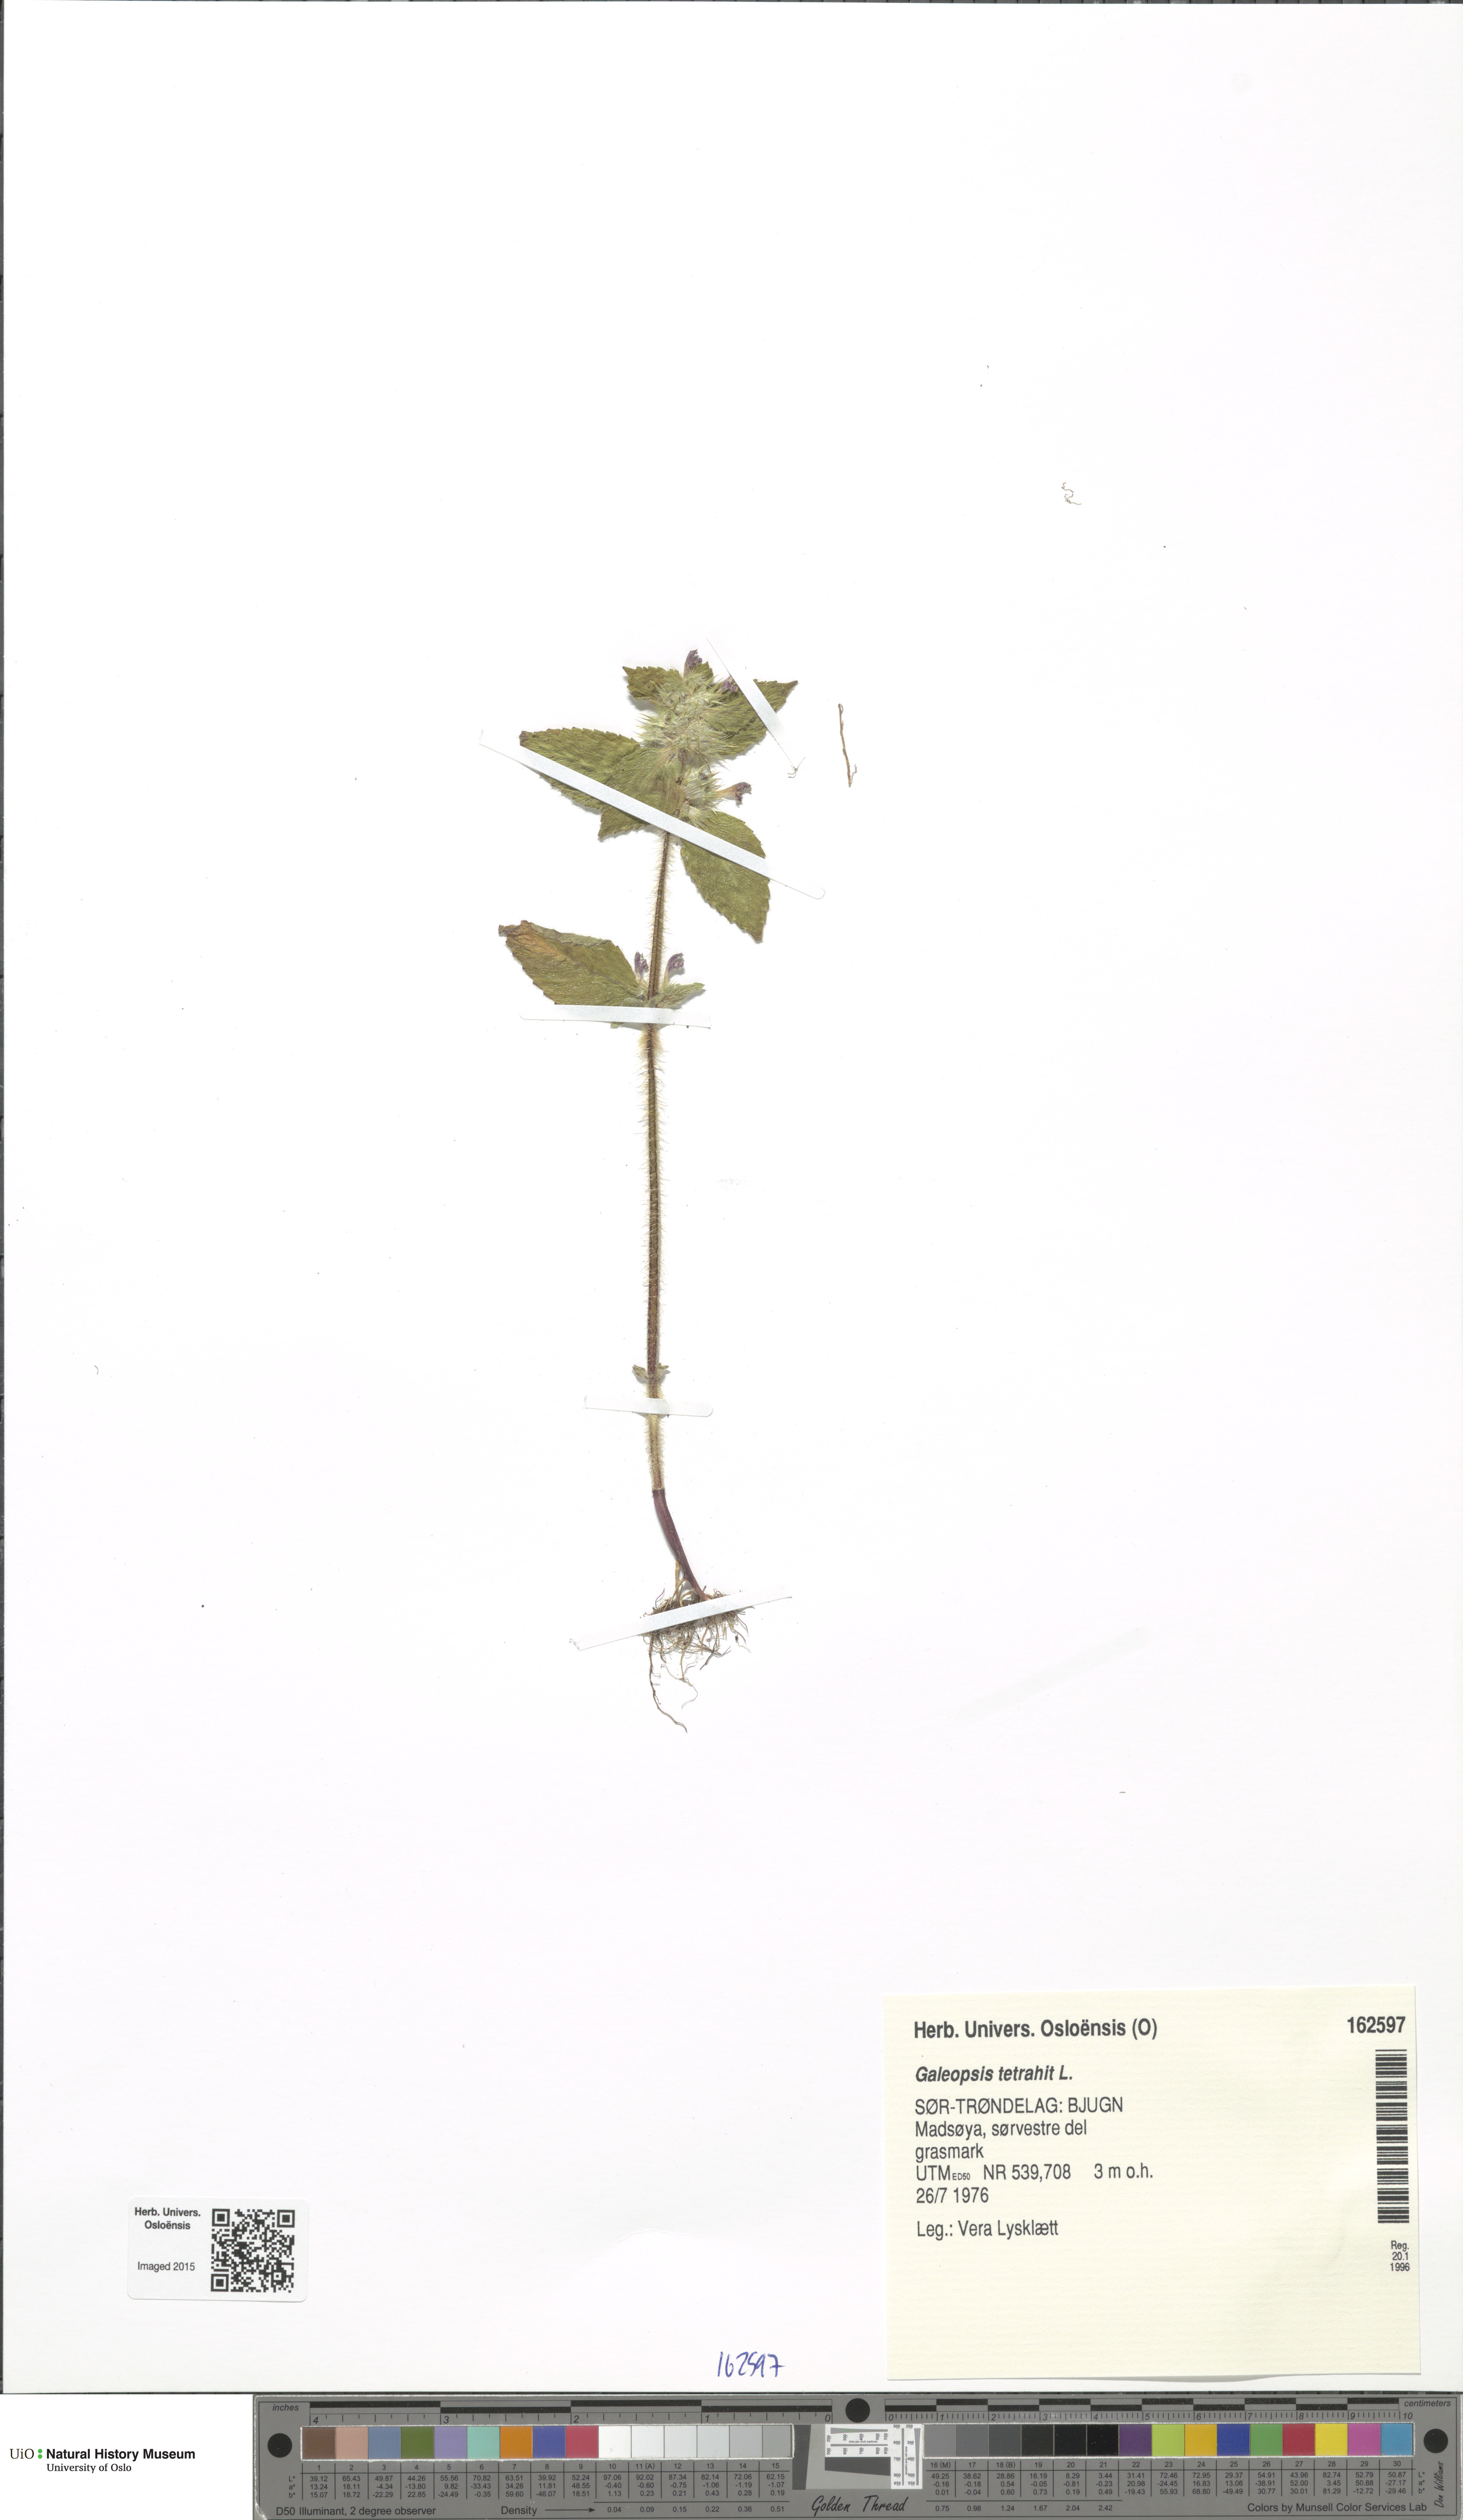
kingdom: Plantae
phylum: Tracheophyta
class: Magnoliopsida
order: Lamiales
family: Lamiaceae
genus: Galeopsis
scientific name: Galeopsis tetrahit
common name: Common hemp-nettle
